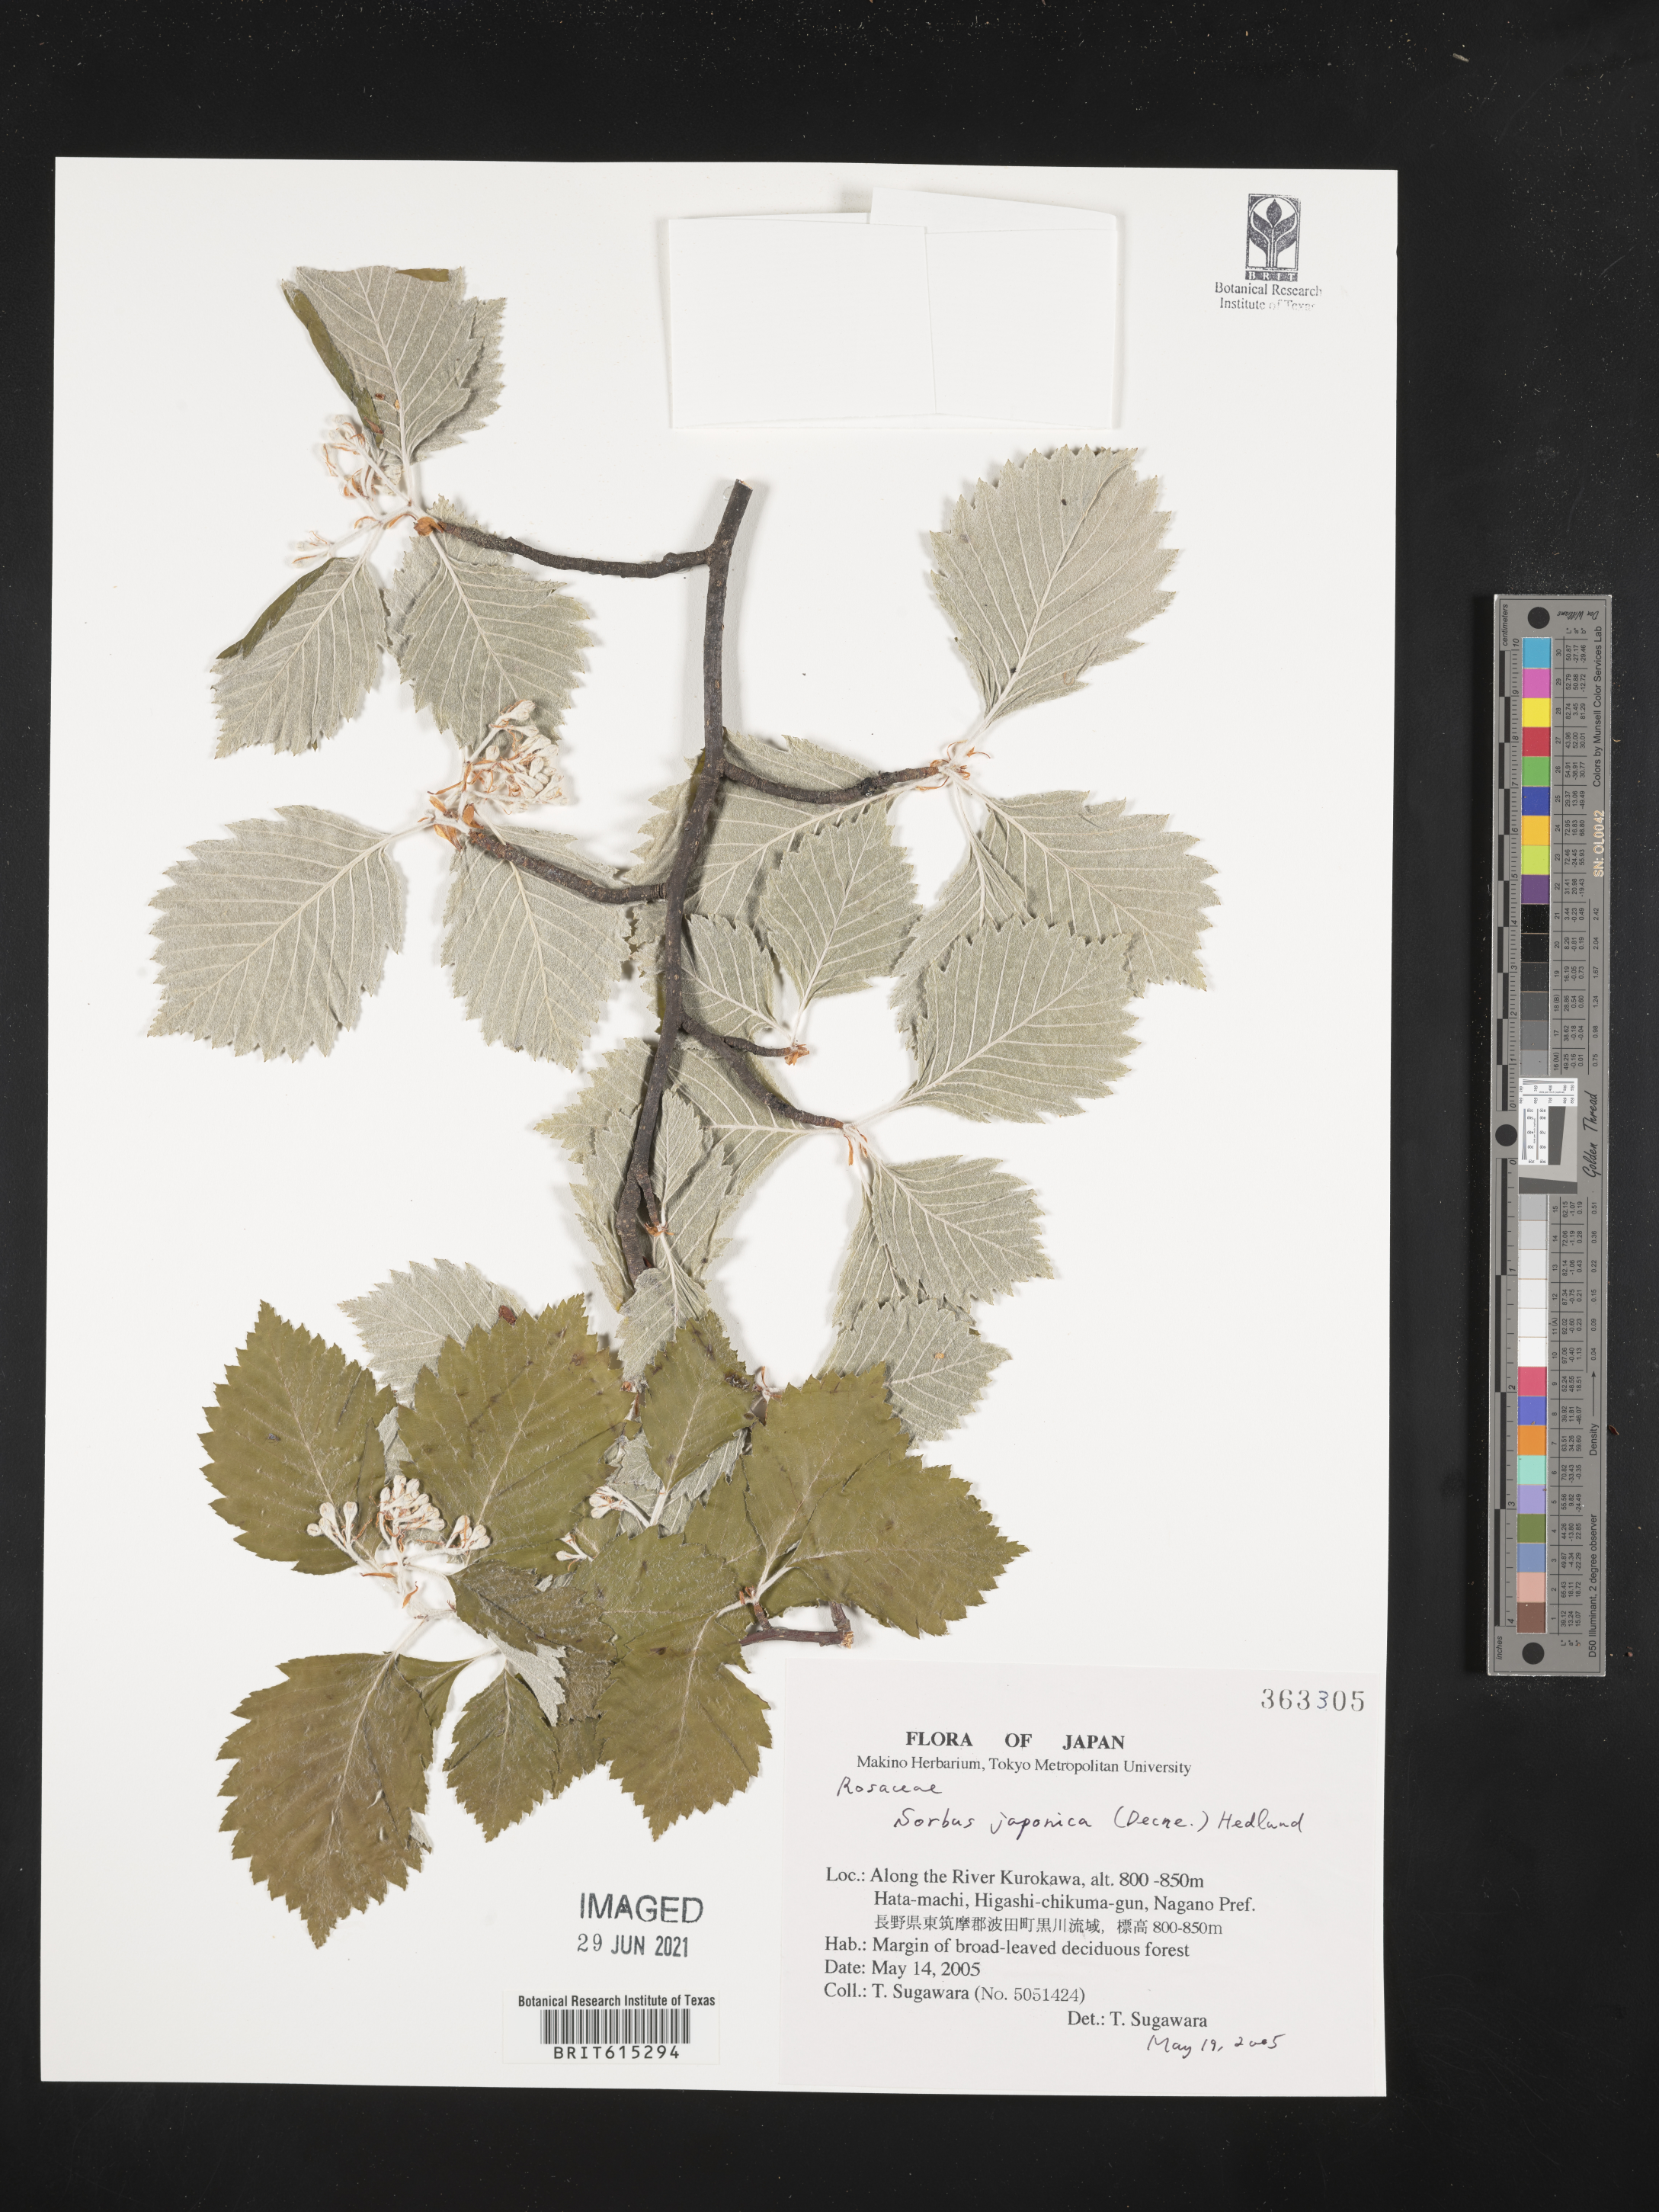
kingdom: Plantae
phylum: Tracheophyta
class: Magnoliopsida
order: Rosales
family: Rosaceae
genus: Sorbus
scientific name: Sorbus japonica
